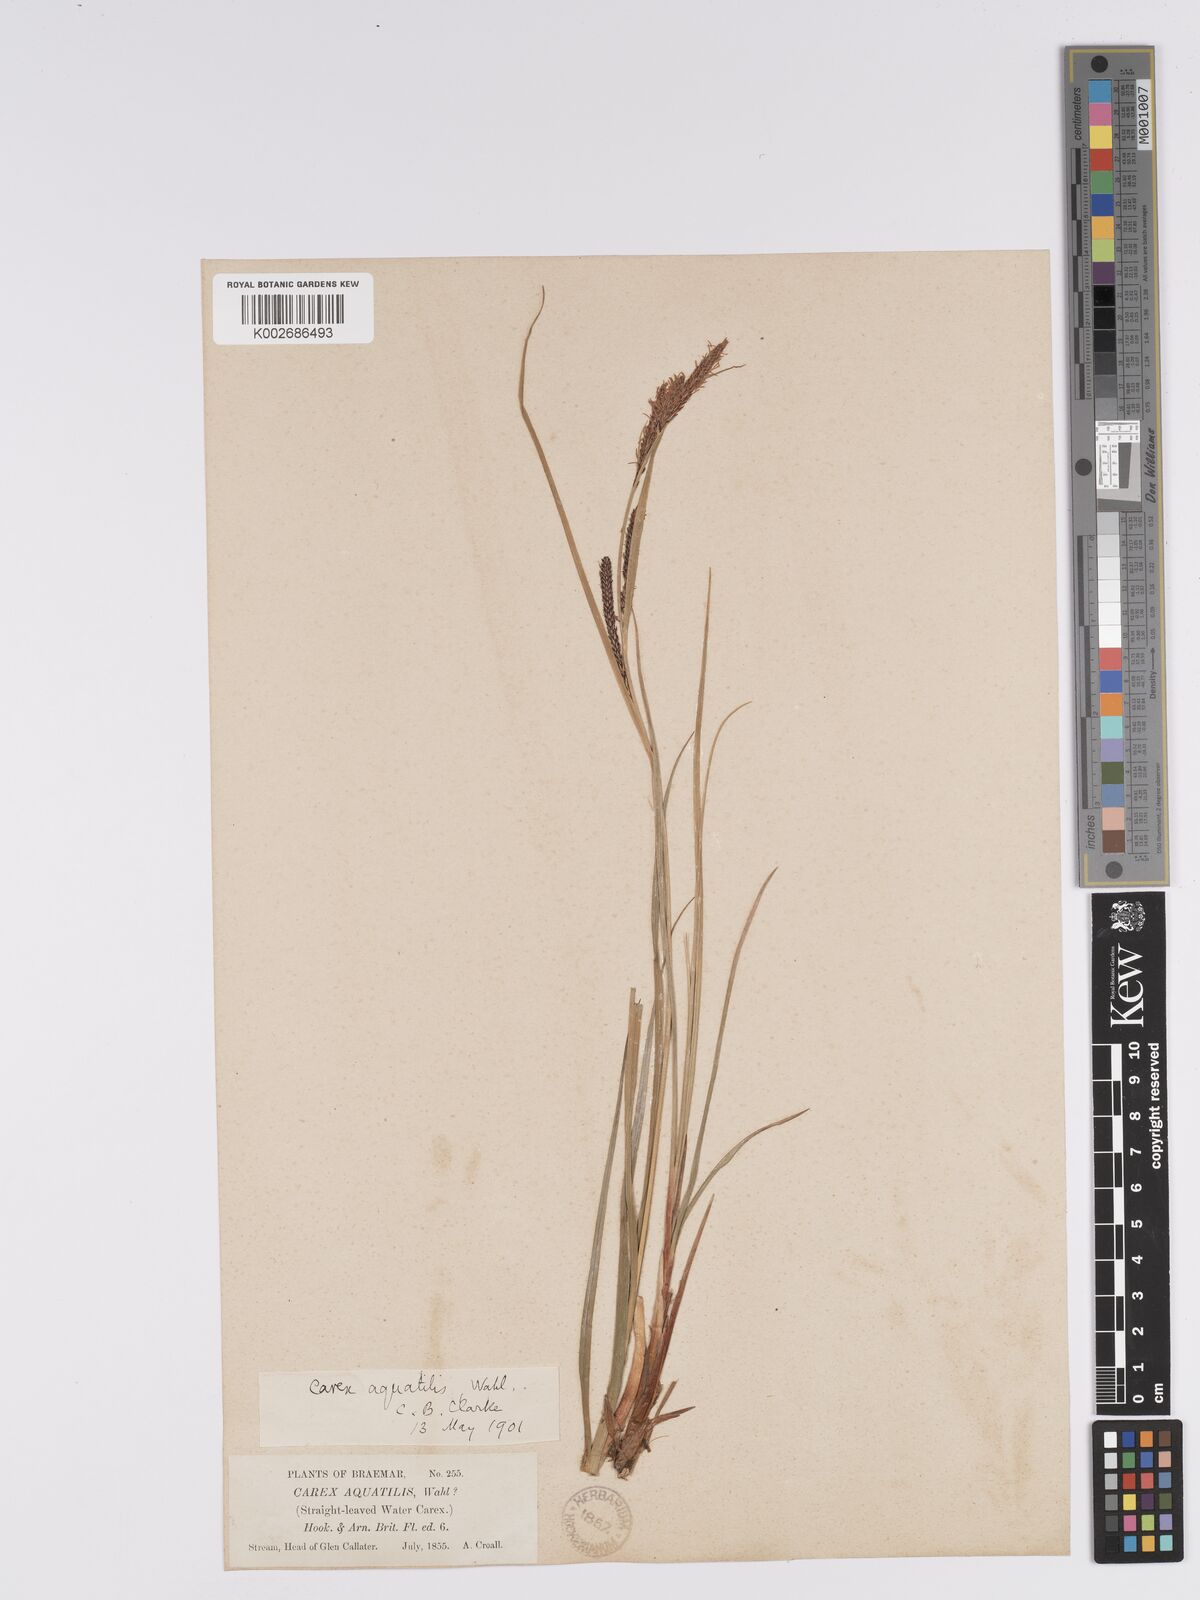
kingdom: Plantae
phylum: Tracheophyta
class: Liliopsida
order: Poales
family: Cyperaceae
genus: Carex
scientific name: Carex aquatilis
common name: Water sedge
